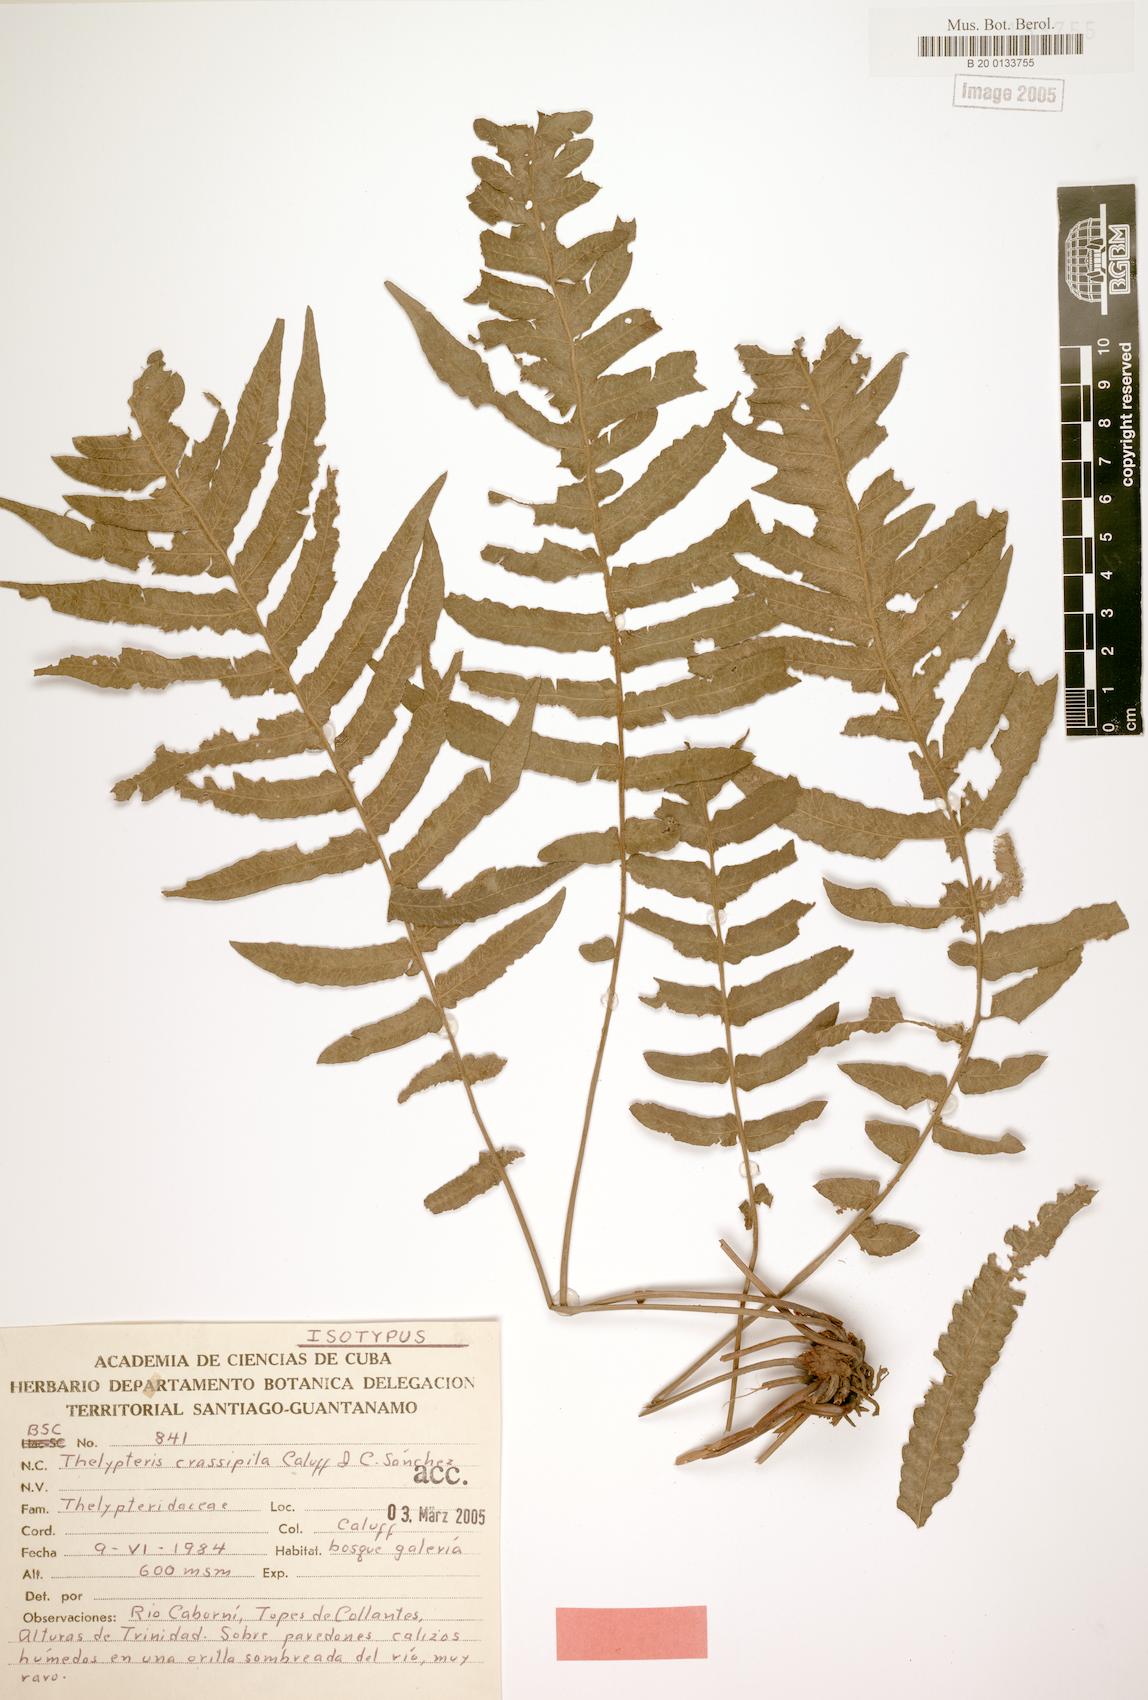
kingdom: Plantae
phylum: Tracheophyta
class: Polypodiopsida
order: Polypodiales
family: Thelypteridaceae
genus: Goniopteris
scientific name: Goniopteris crassipila
